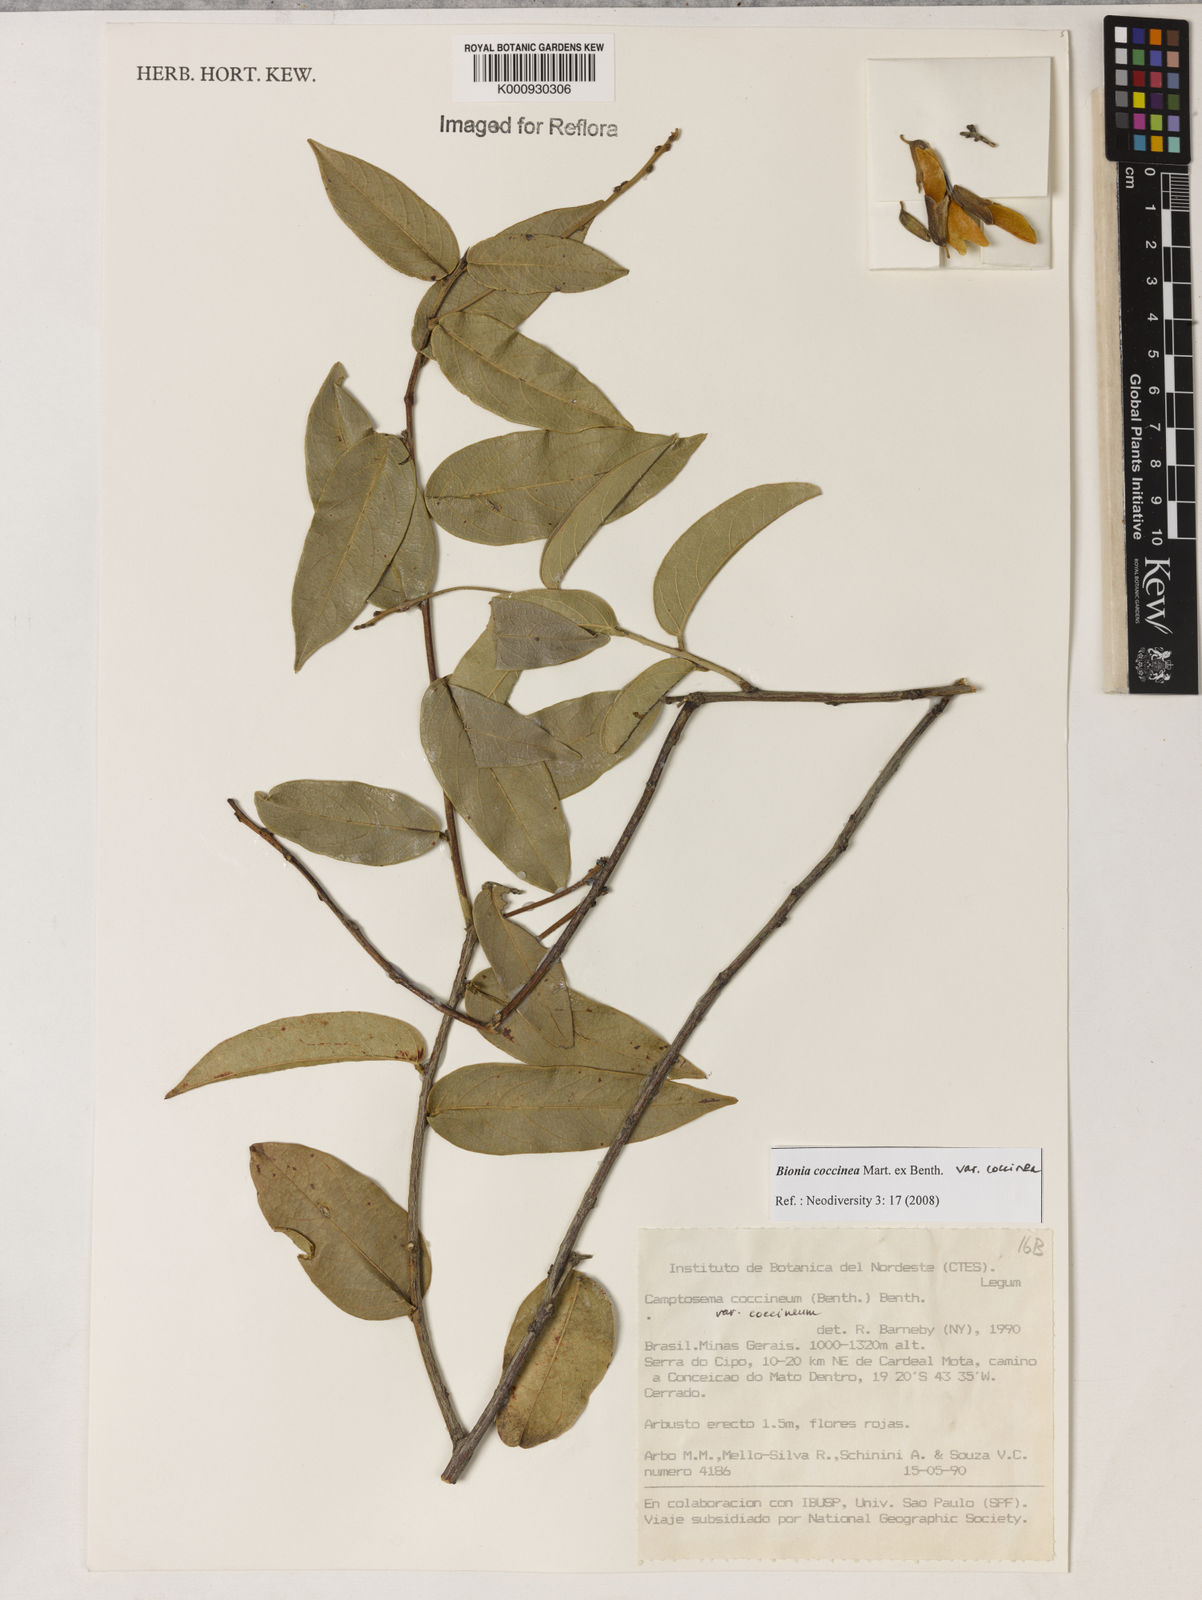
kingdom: Plantae
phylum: Tracheophyta
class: Magnoliopsida
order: Fabales
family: Fabaceae
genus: Camptosema
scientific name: Camptosema coccineum
